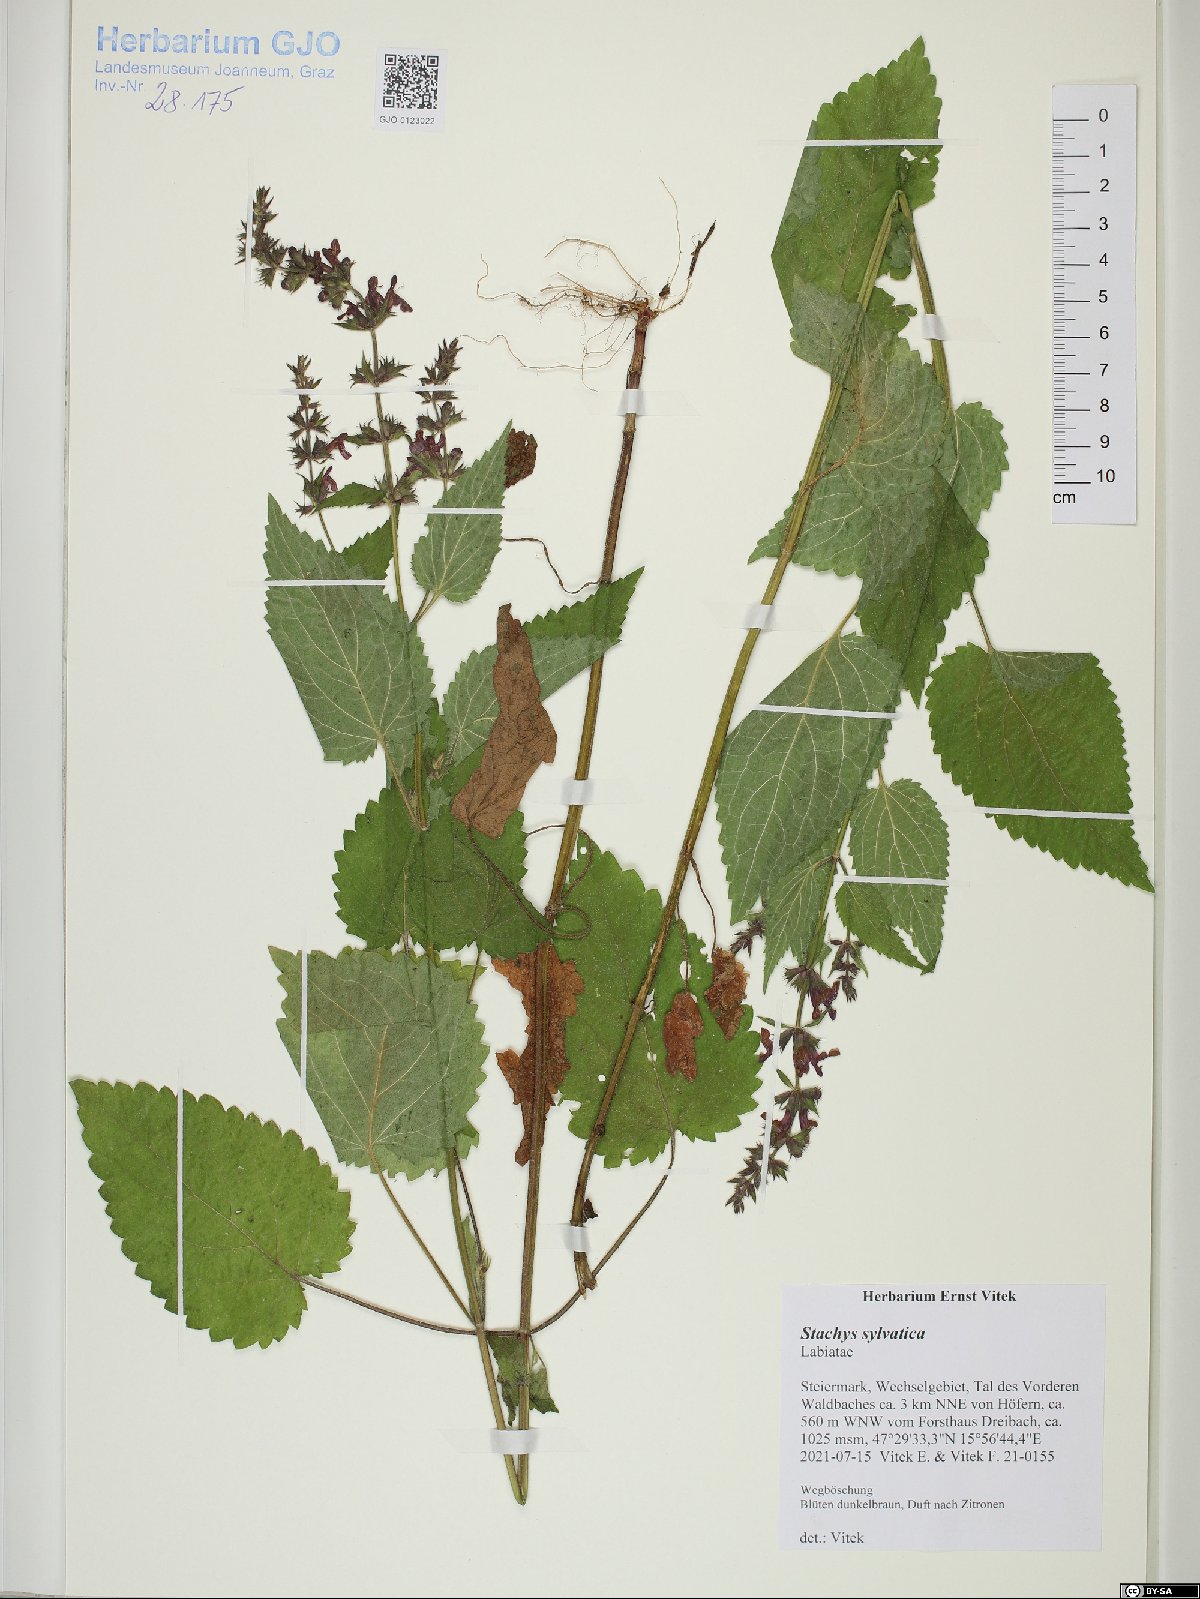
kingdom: Plantae
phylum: Tracheophyta
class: Magnoliopsida
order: Lamiales
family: Lamiaceae
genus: Stachys
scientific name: Stachys sylvatica
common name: Hedge woundwort
